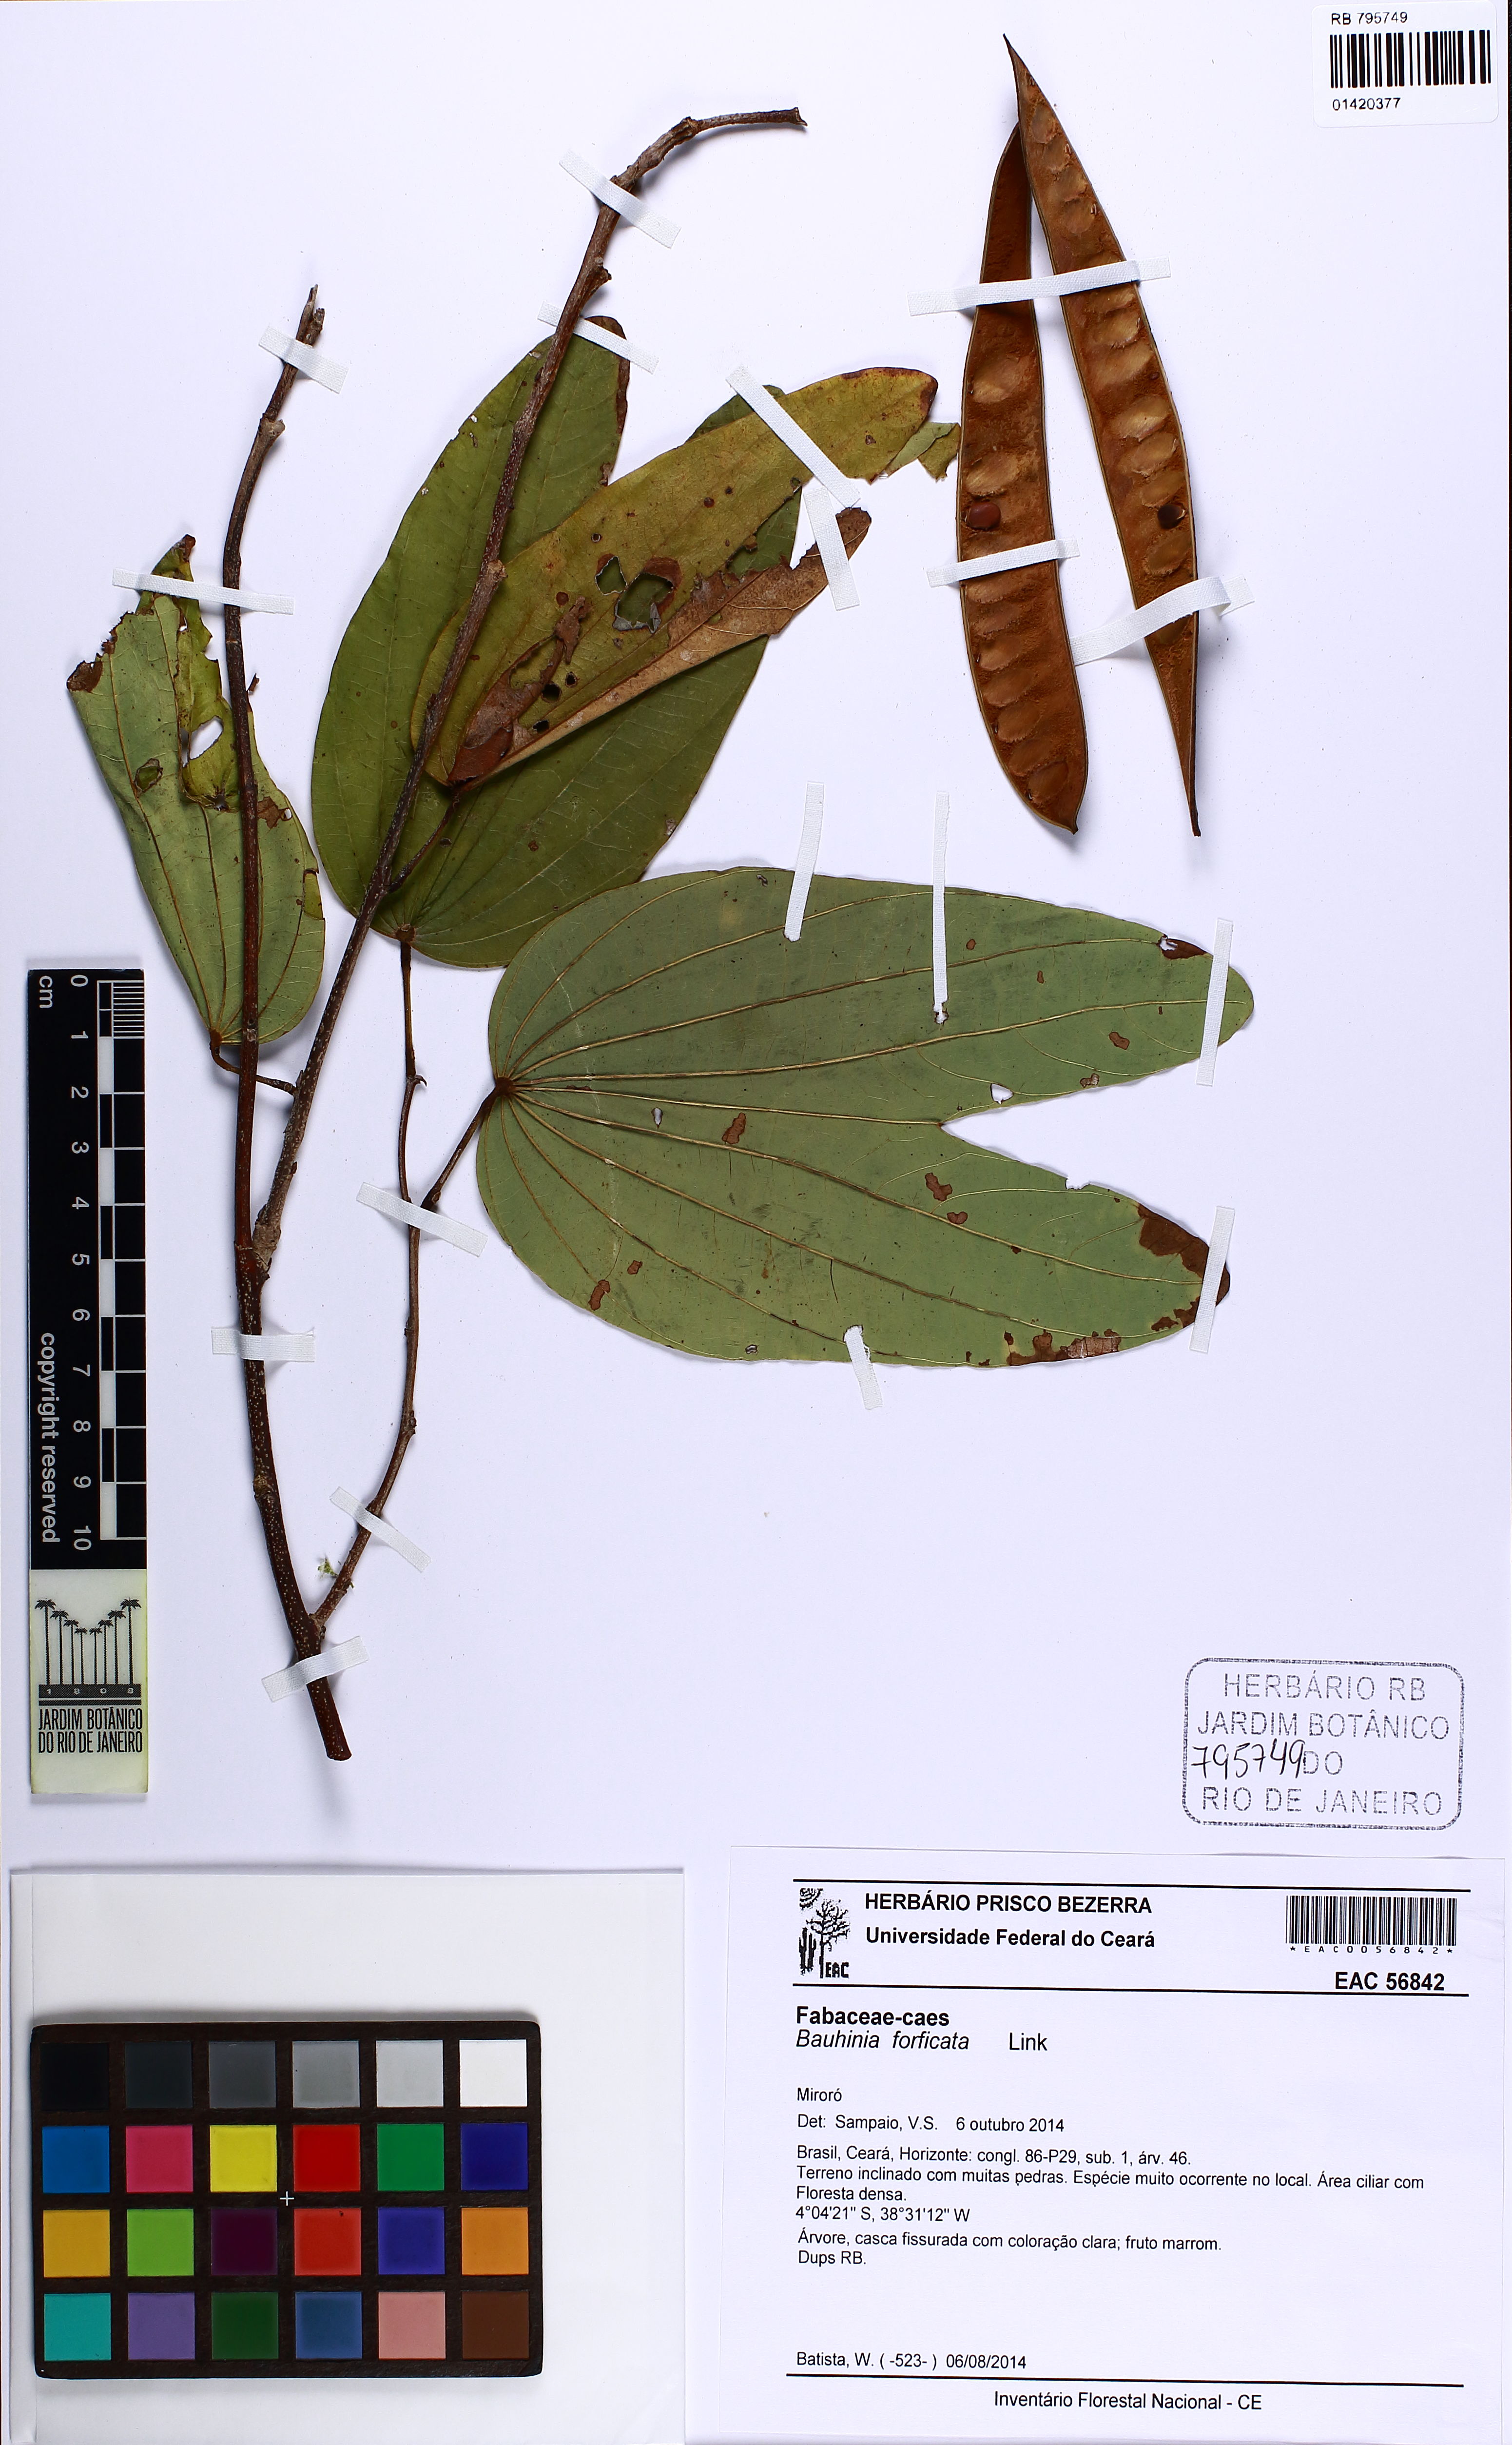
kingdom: Plantae
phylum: Tracheophyta
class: Magnoliopsida
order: Fabales
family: Fabaceae
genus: Bauhinia
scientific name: Bauhinia forficata
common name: Orchid tree
